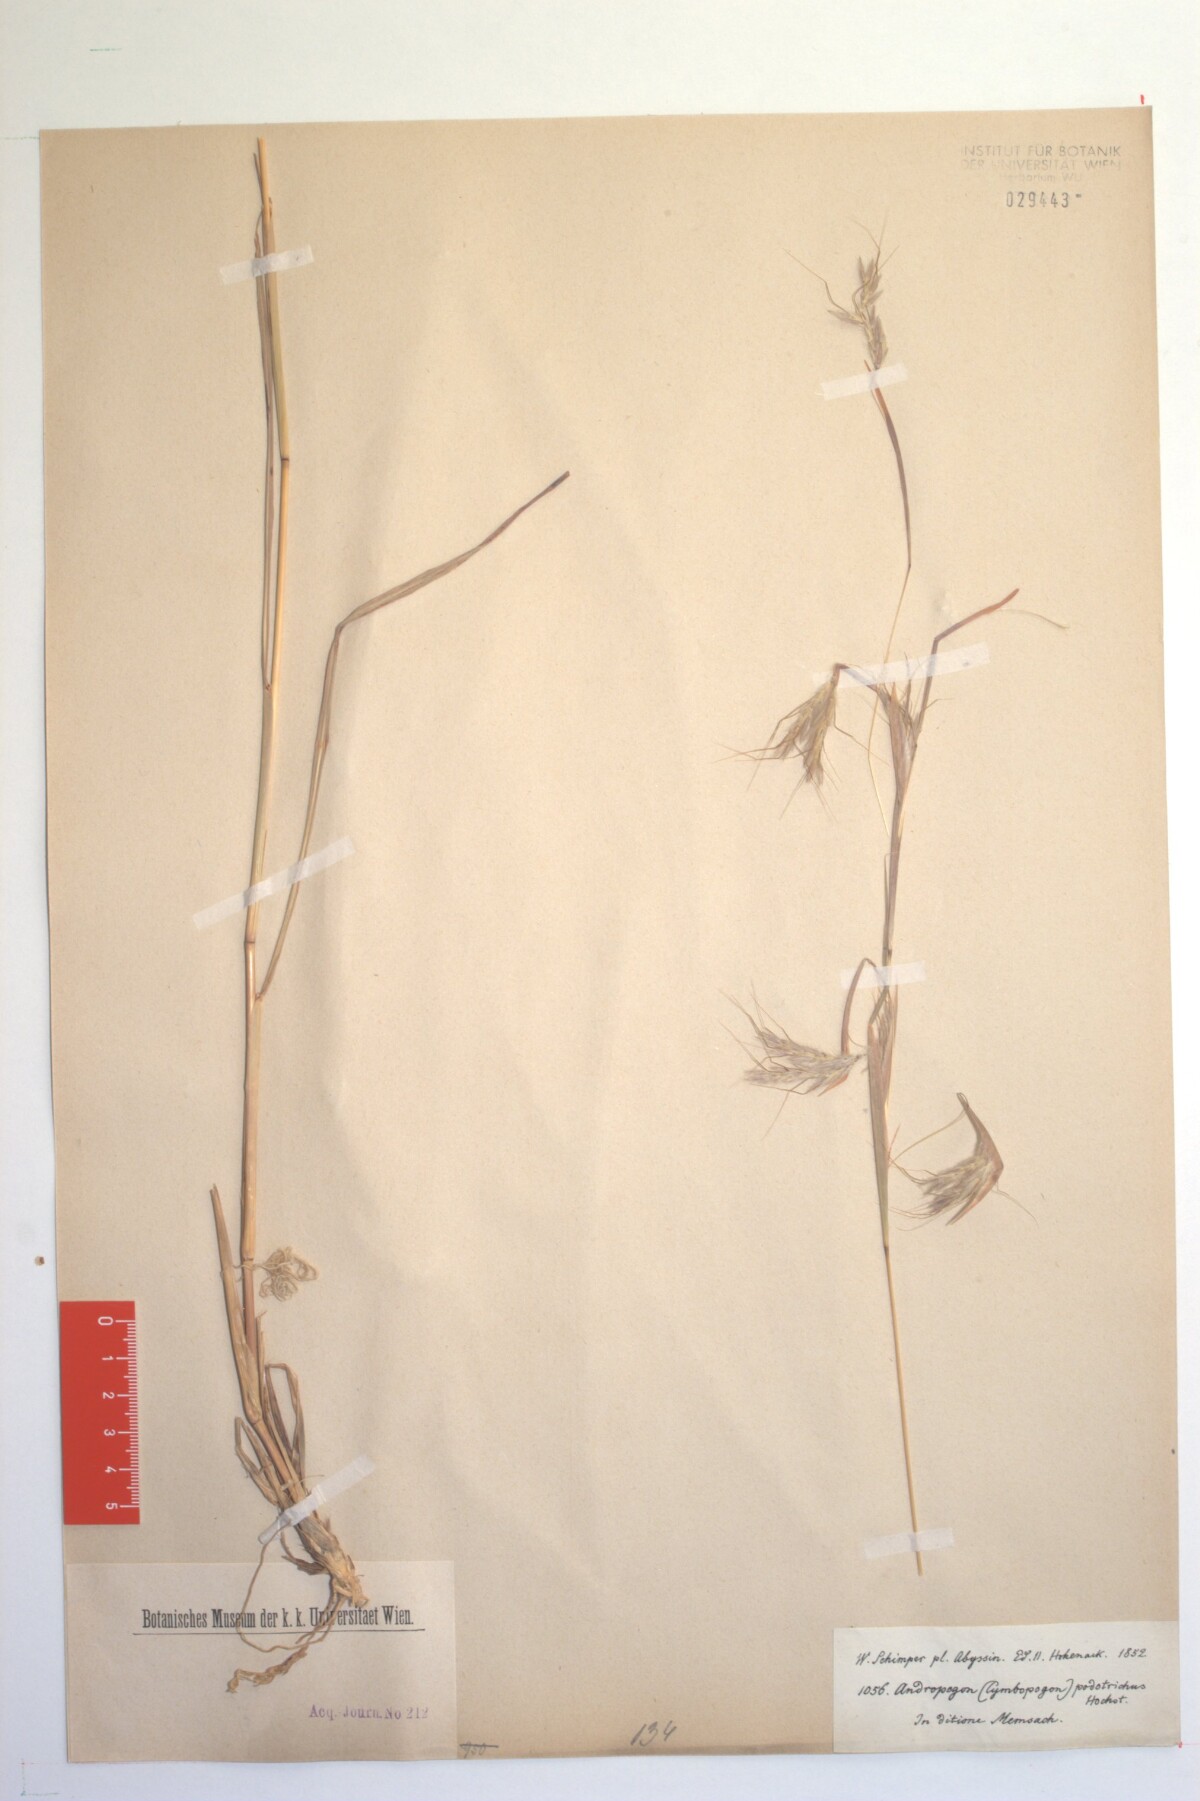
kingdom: Plantae
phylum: Tracheophyta
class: Liliopsida
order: Poales
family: Poaceae
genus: Hyparrhenia
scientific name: Hyparrhenia hirta
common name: Thatching grass
